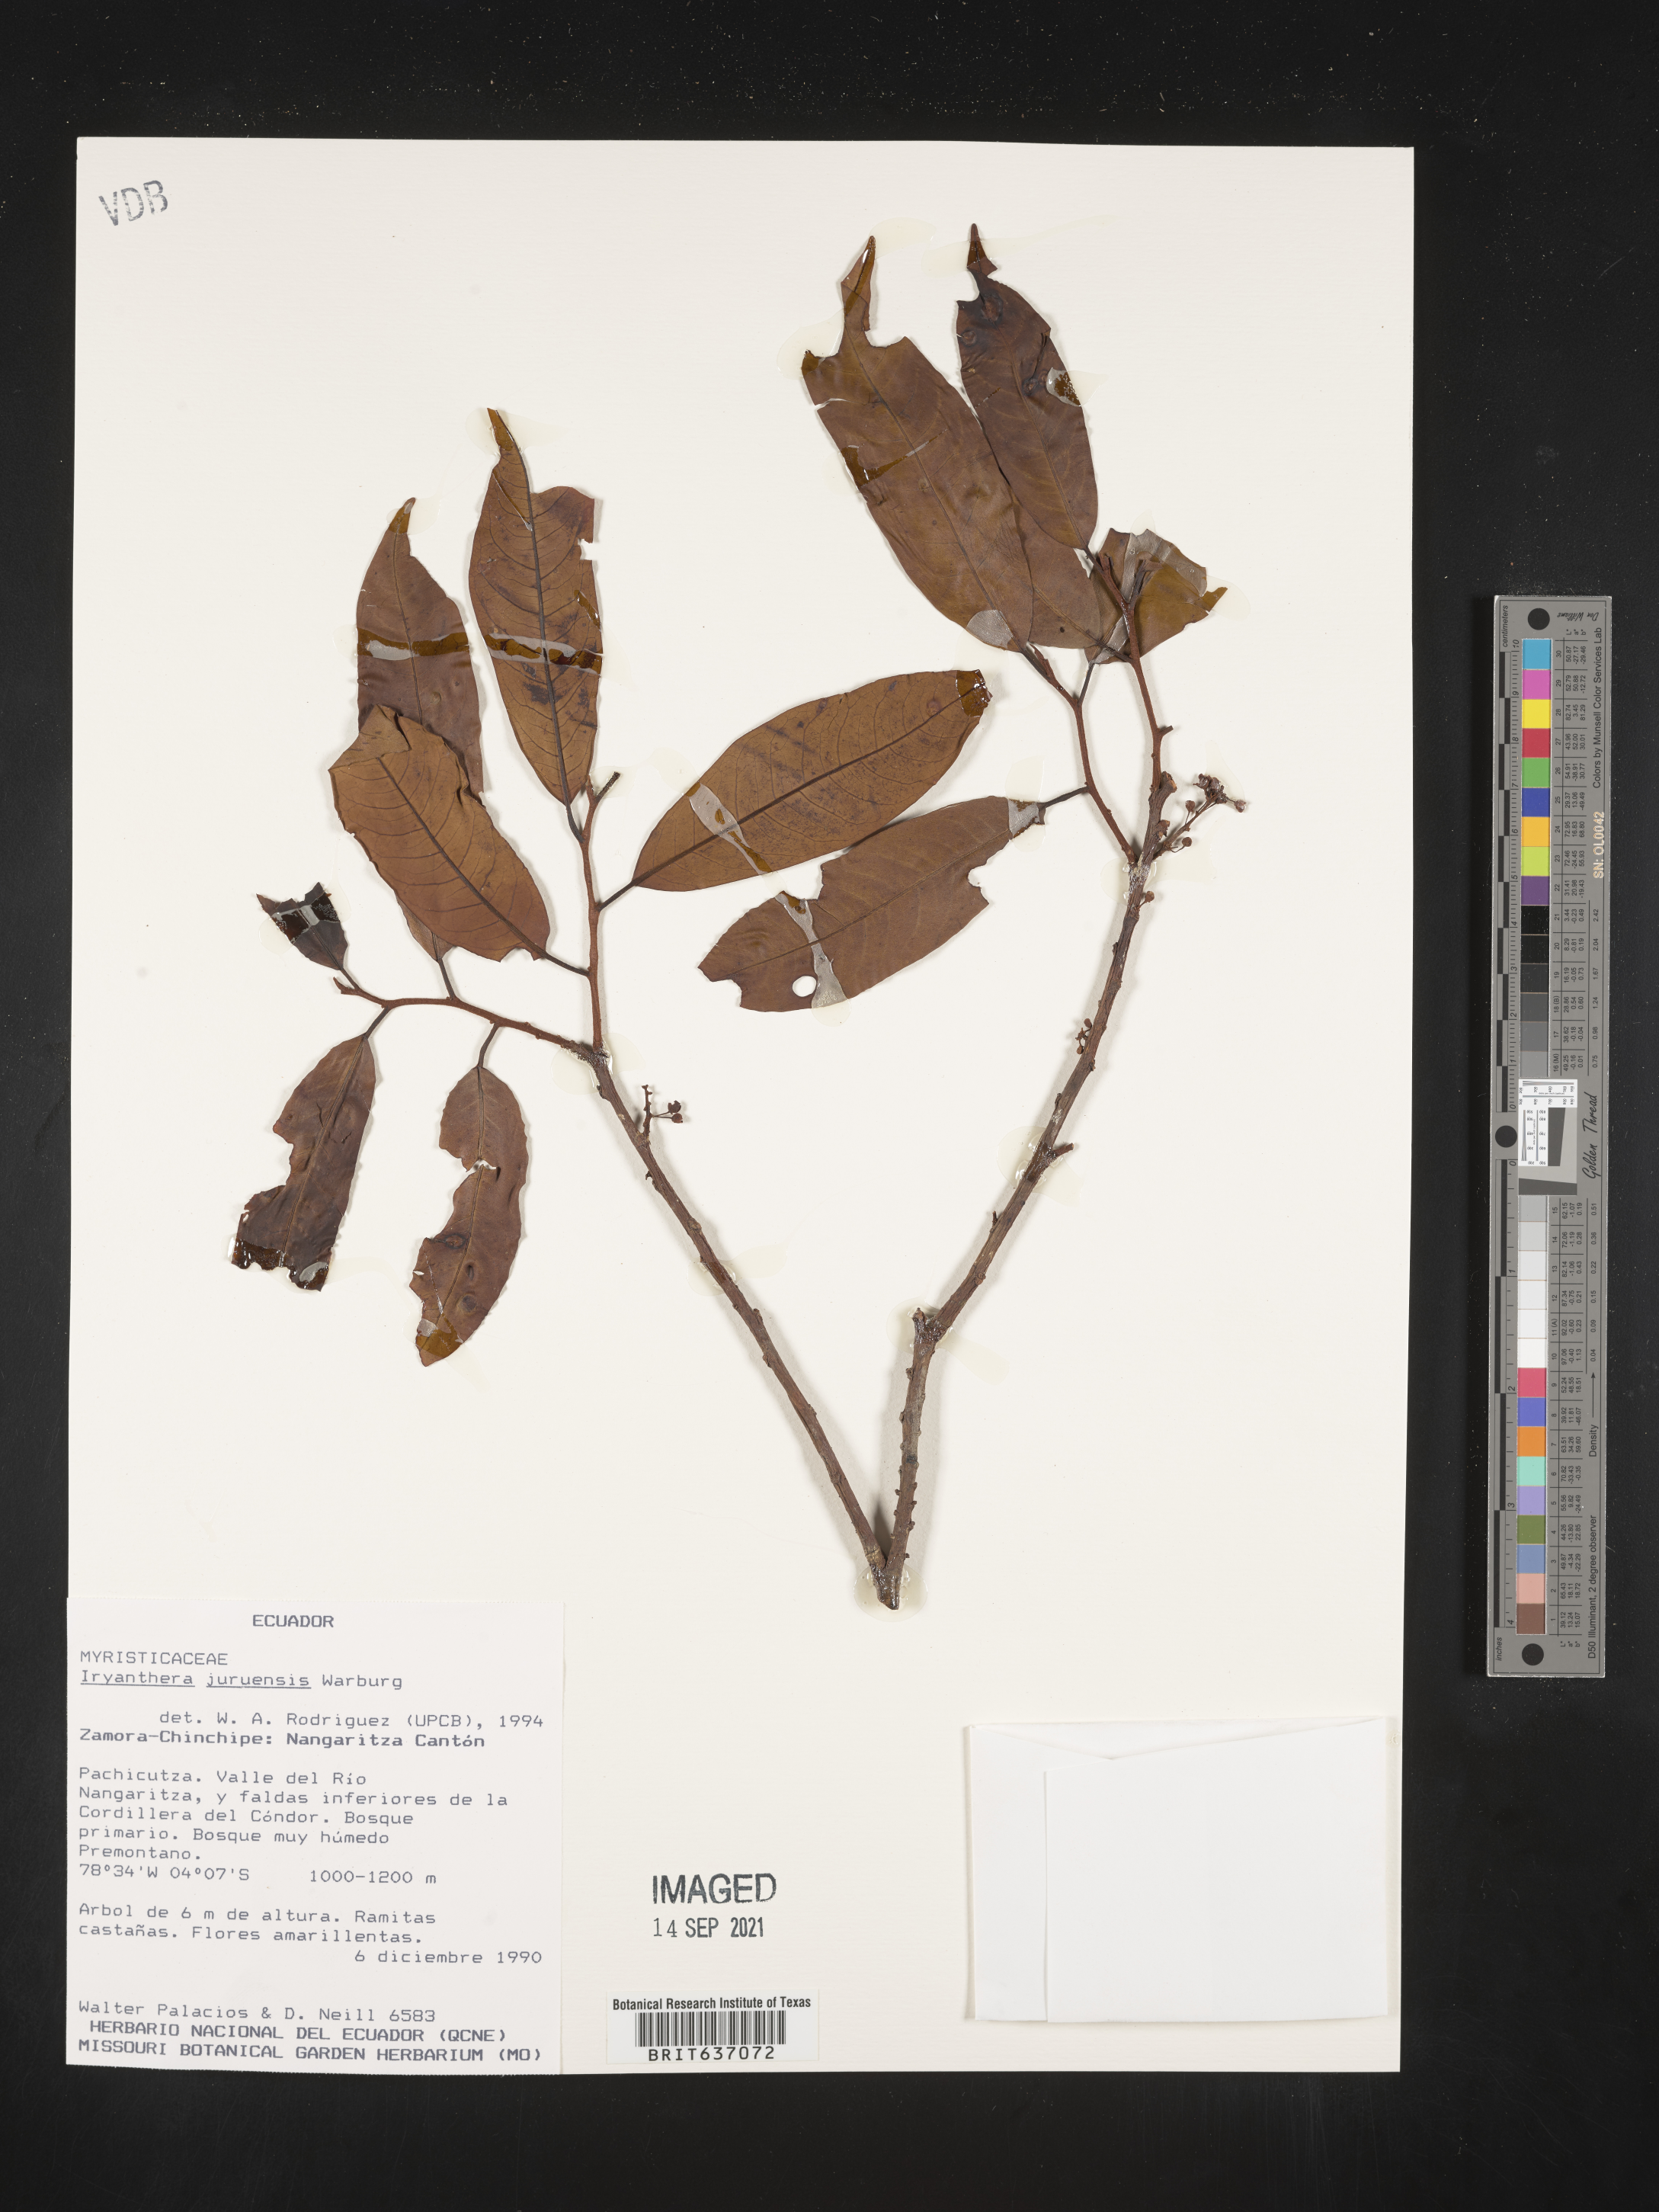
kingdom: Plantae
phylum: Tracheophyta
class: Magnoliopsida
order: Magnoliales
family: Myristicaceae
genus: Iryanthera
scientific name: Iryanthera
